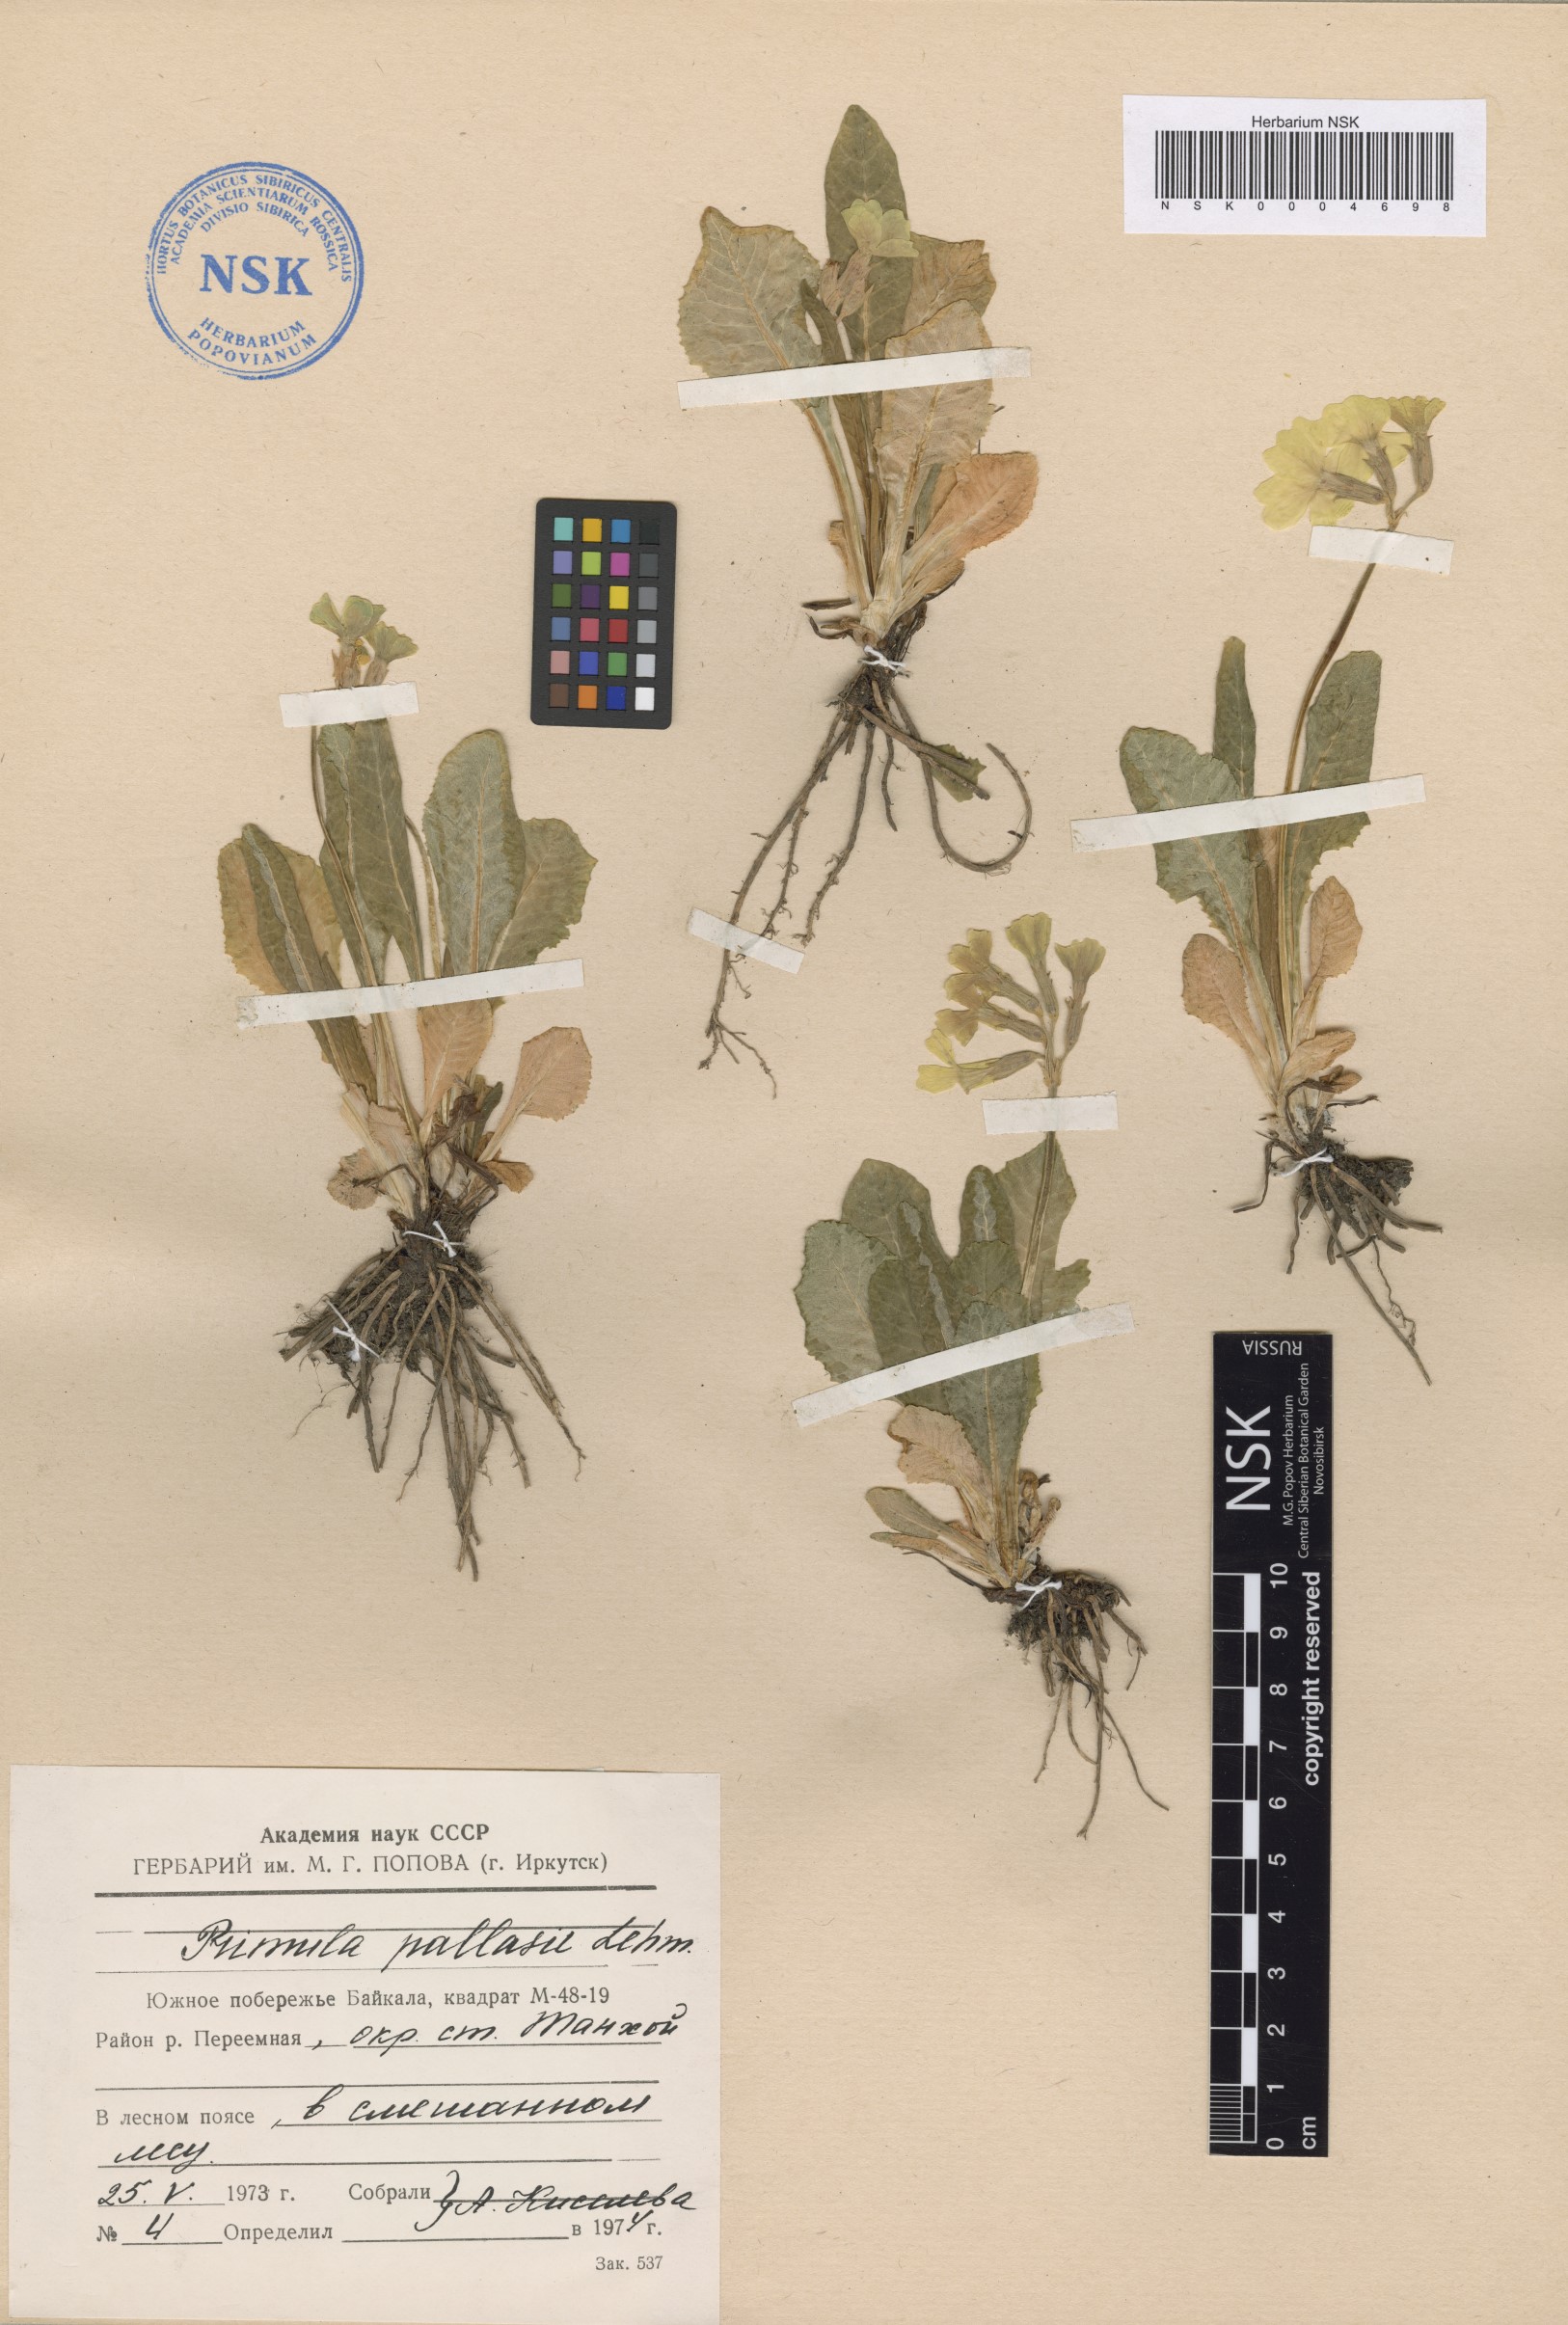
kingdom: Plantae
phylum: Tracheophyta
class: Magnoliopsida
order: Ericales
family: Primulaceae
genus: Primula
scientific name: Primula elatior
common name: Oxlip
